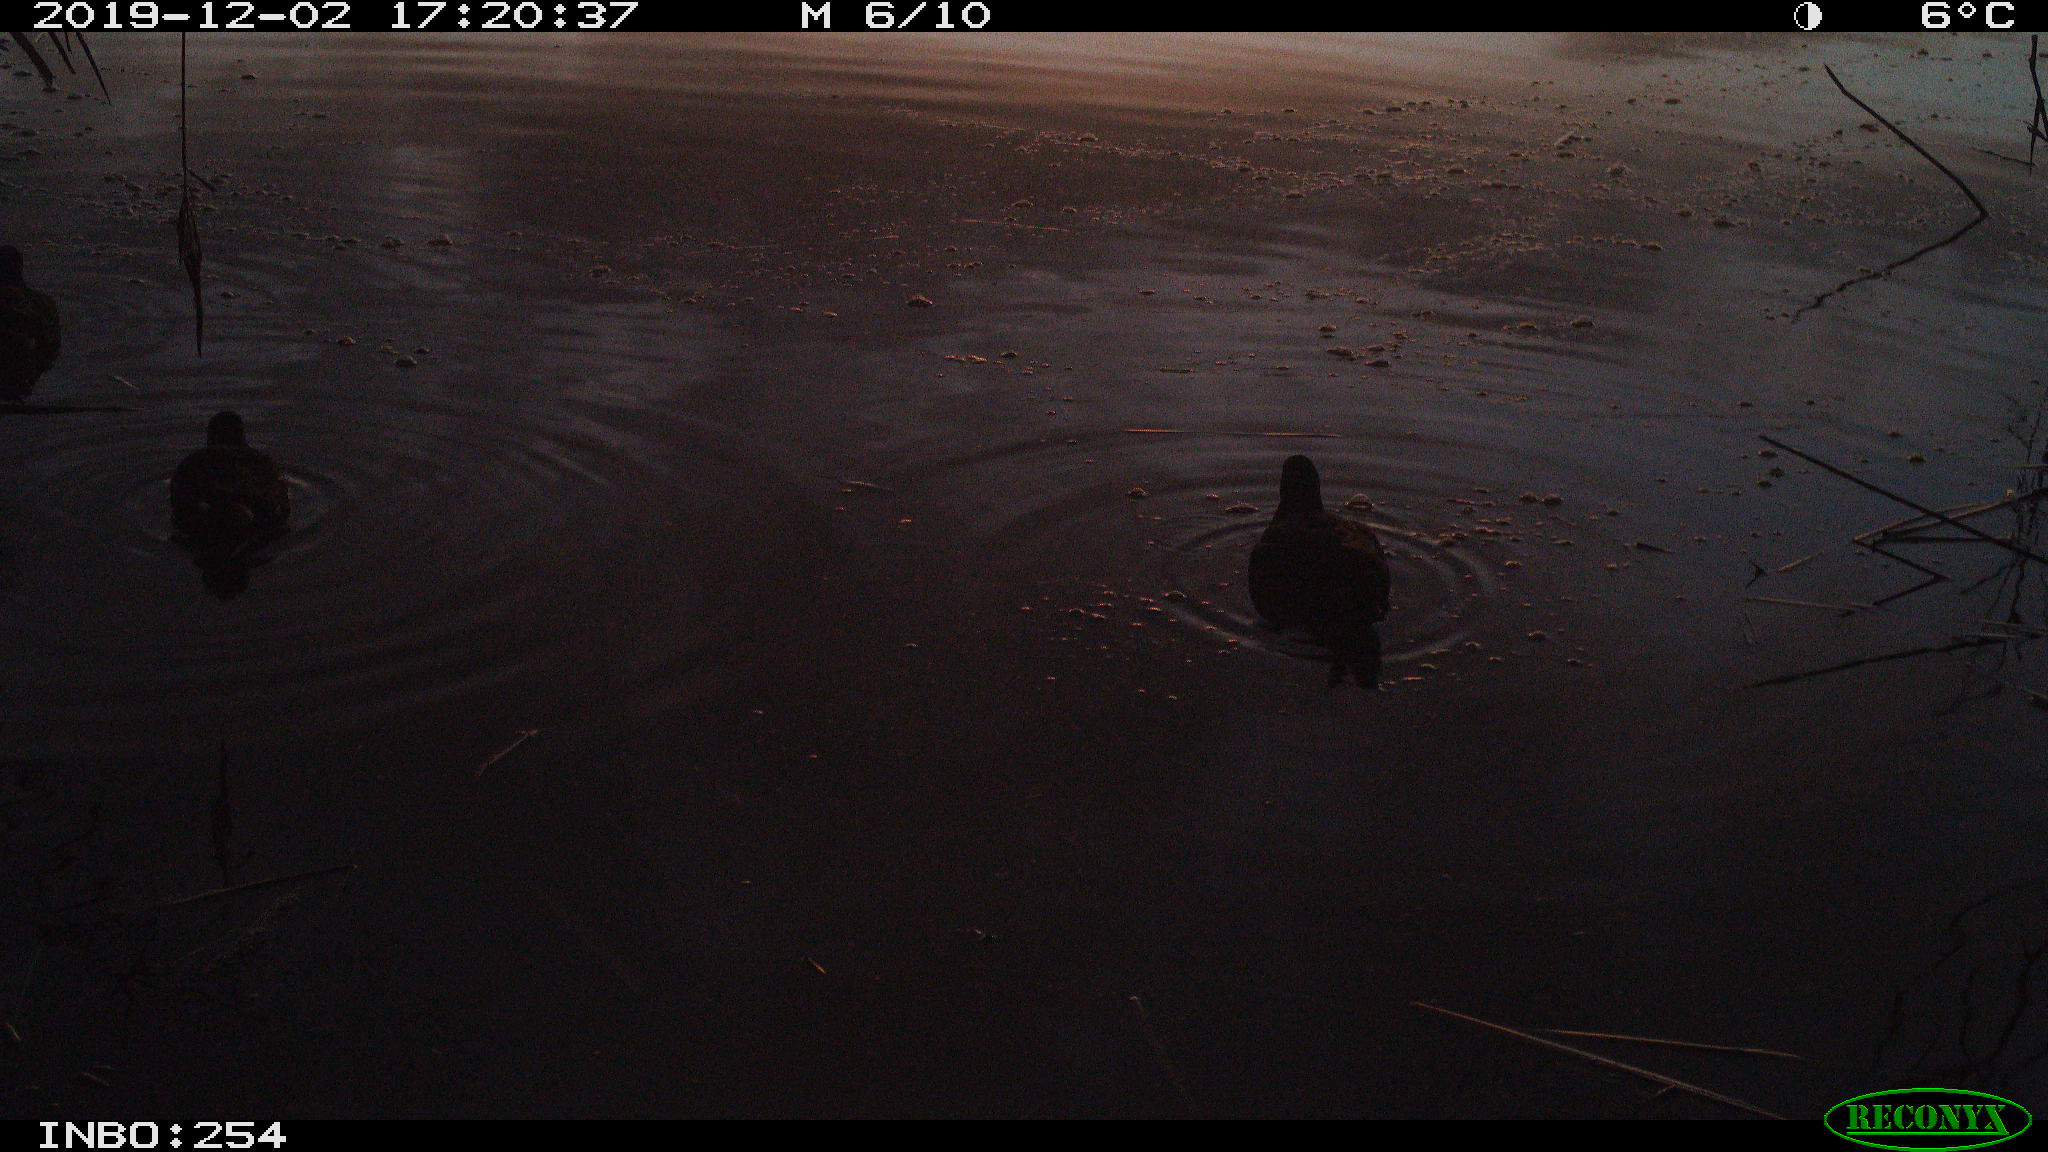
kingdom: Animalia
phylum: Chordata
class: Aves
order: Gruiformes
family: Rallidae
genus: Gallinula
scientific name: Gallinula chloropus
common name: Common moorhen
